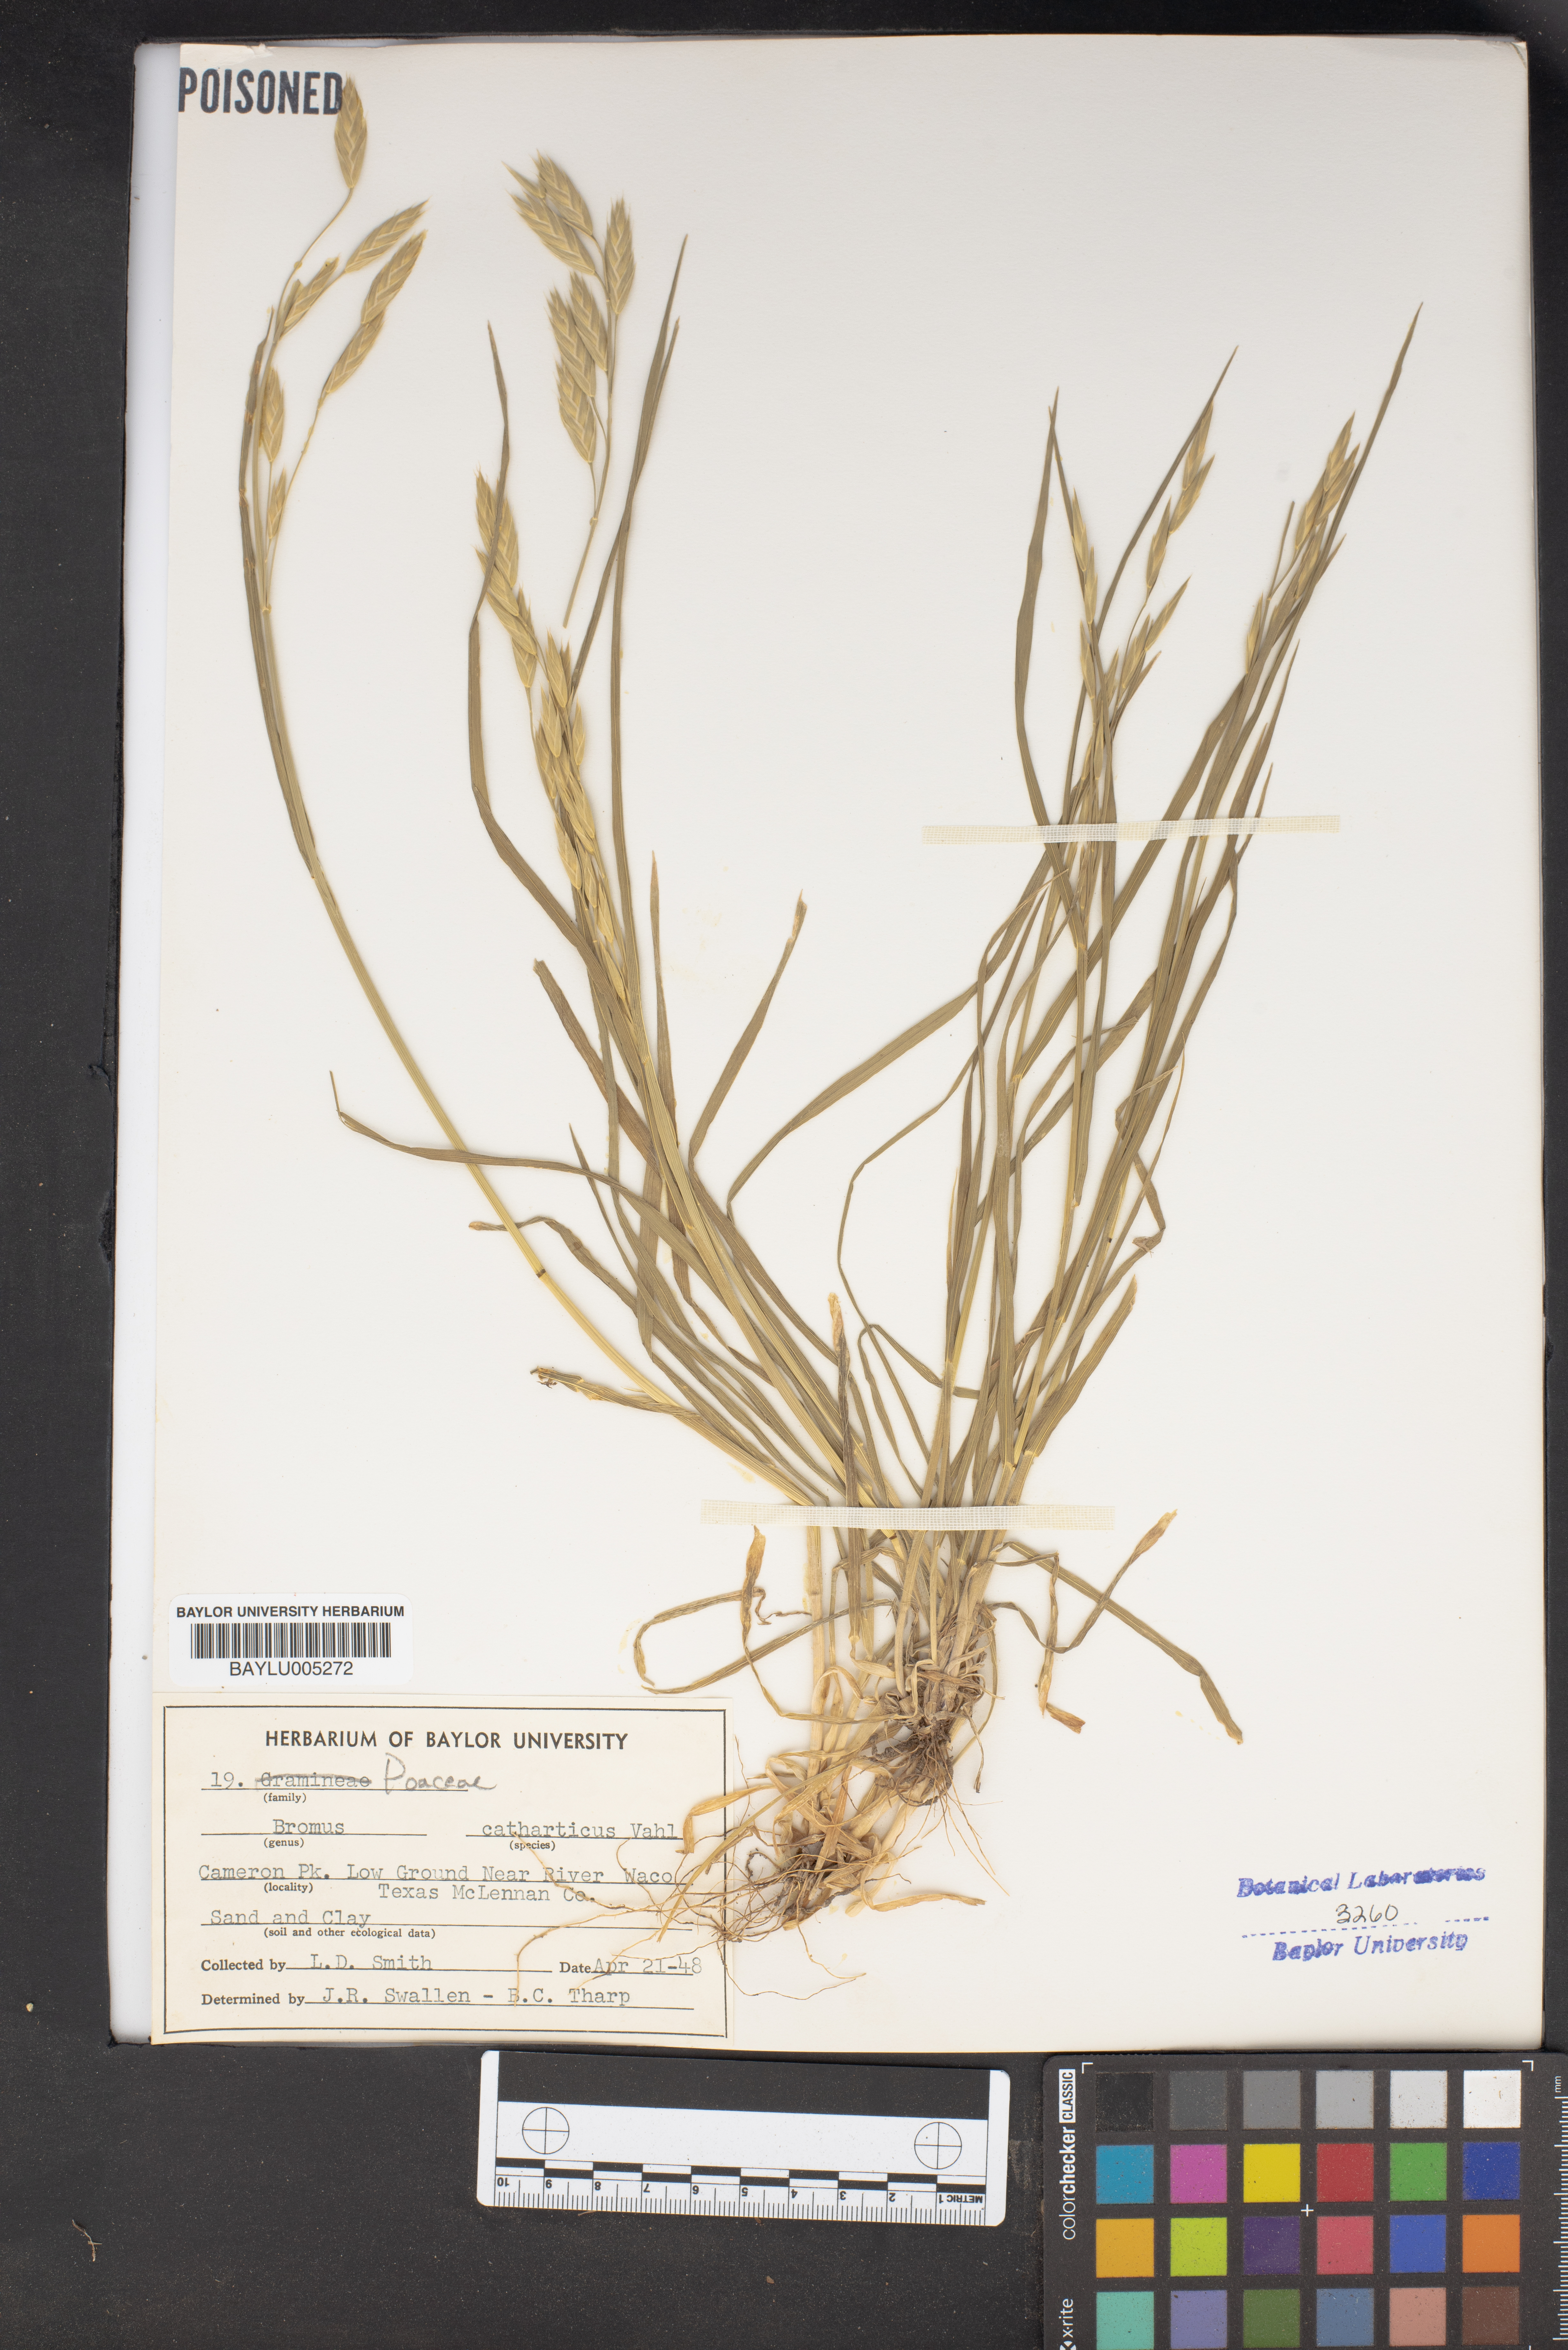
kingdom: Plantae
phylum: Tracheophyta
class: Liliopsida
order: Poales
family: Poaceae
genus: Bromus
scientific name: Bromus catharticus
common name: Rescuegrass
